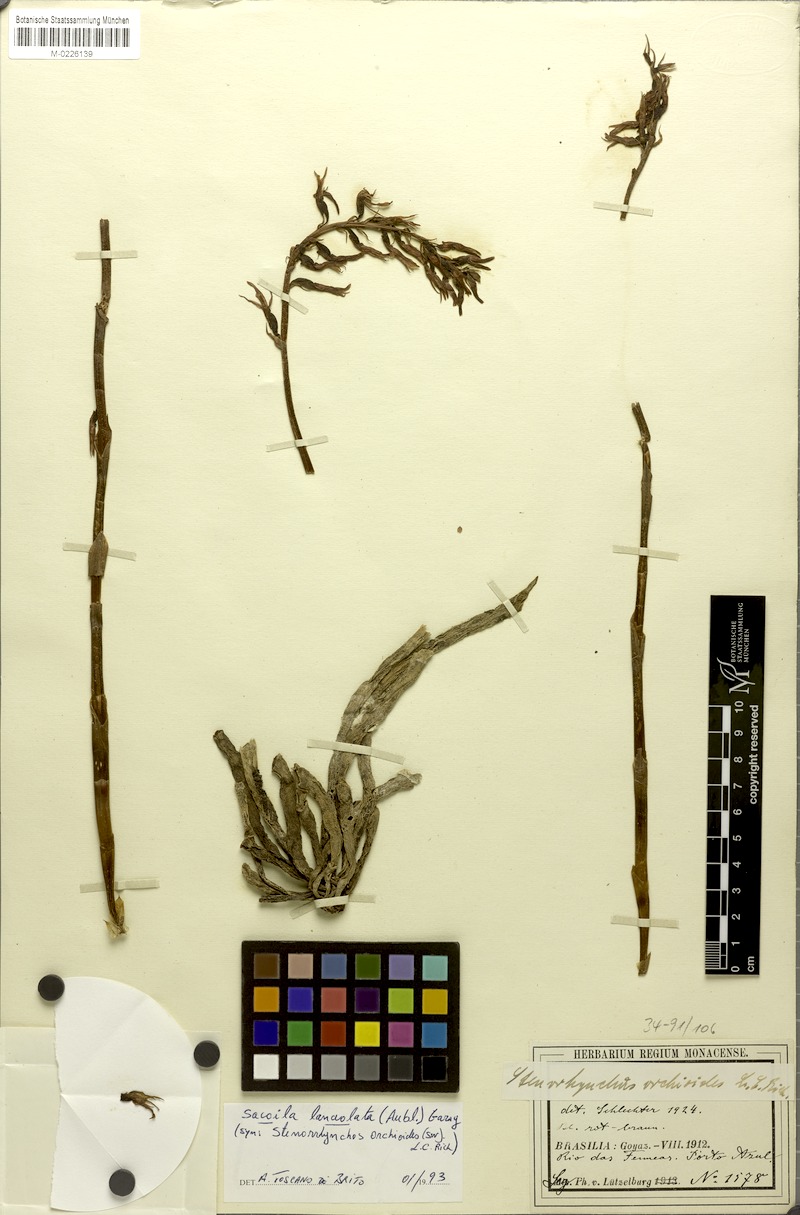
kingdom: Plantae
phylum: Tracheophyta
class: Liliopsida
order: Asparagales
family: Orchidaceae
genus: Sacoila
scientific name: Sacoila lanceolata
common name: Leafless beaked ladiestresses
